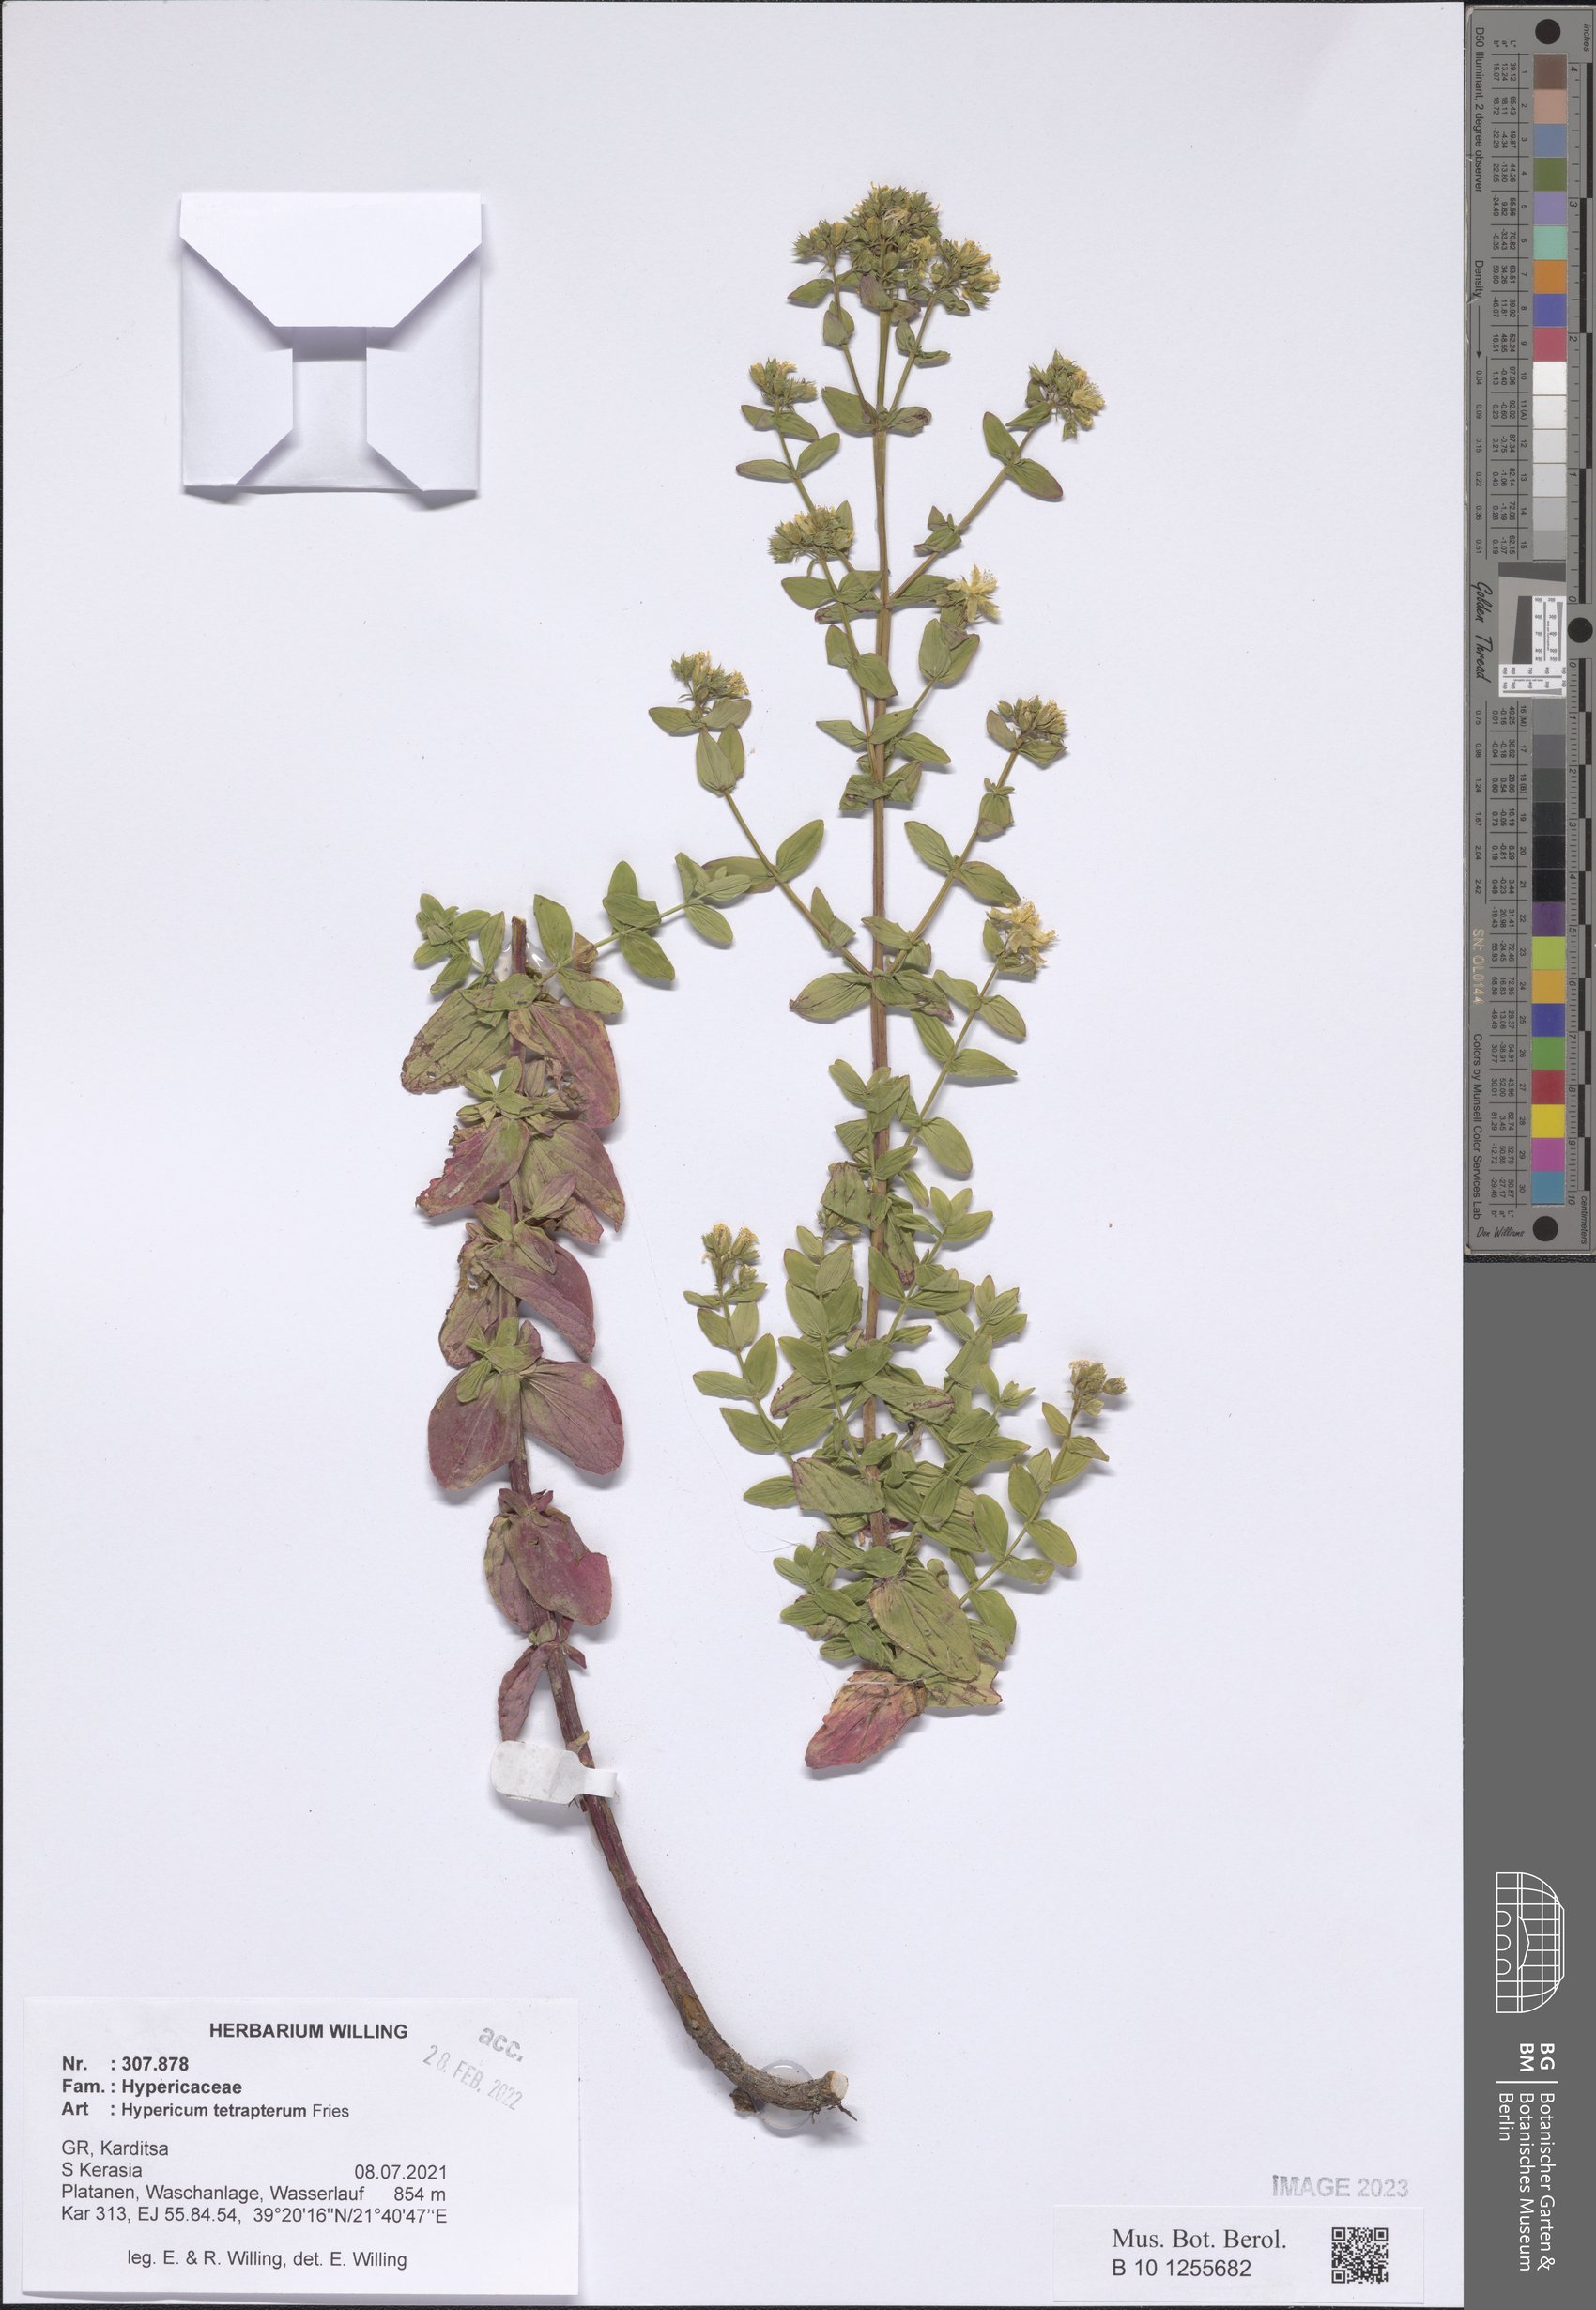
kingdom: Plantae
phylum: Tracheophyta
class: Magnoliopsida
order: Malpighiales
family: Hypericaceae
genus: Hypericum
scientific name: Hypericum tetrapterum
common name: Square-stalked st. john's-wort
